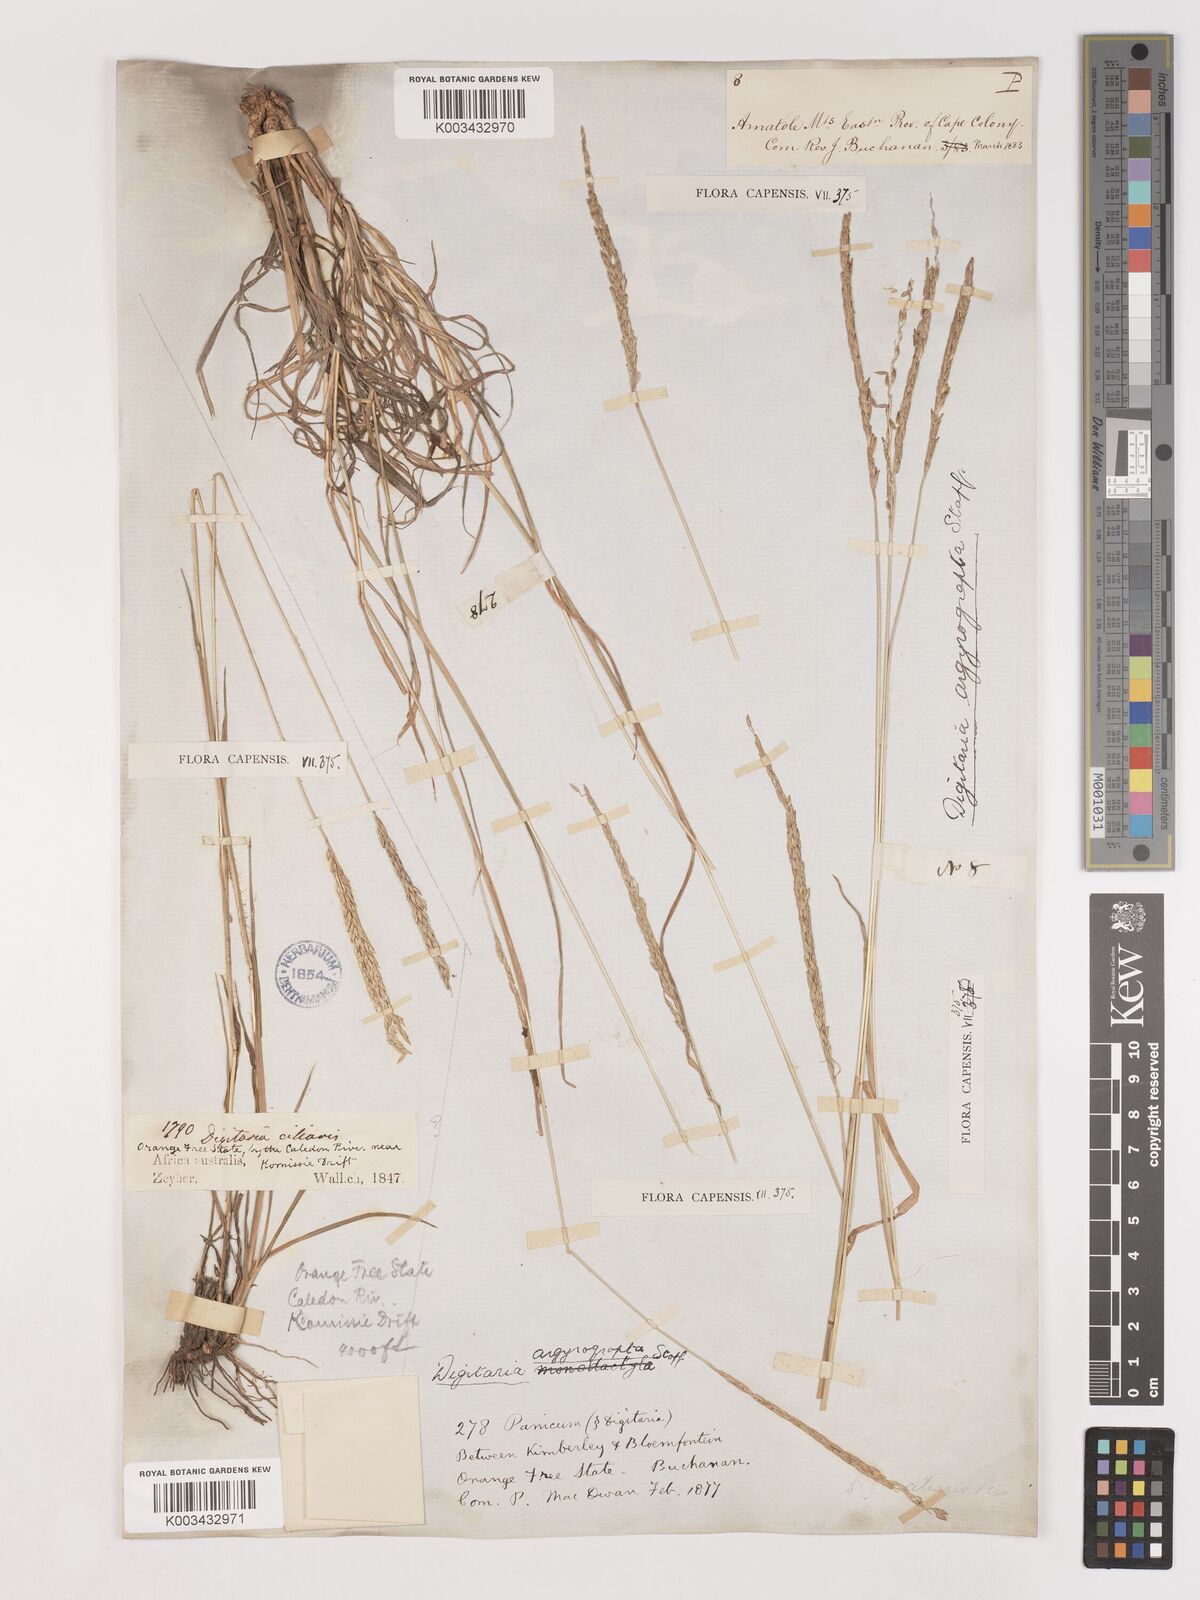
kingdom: Plantae
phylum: Tracheophyta
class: Liliopsida
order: Poales
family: Poaceae
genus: Digitaria
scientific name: Digitaria argyrograpta
